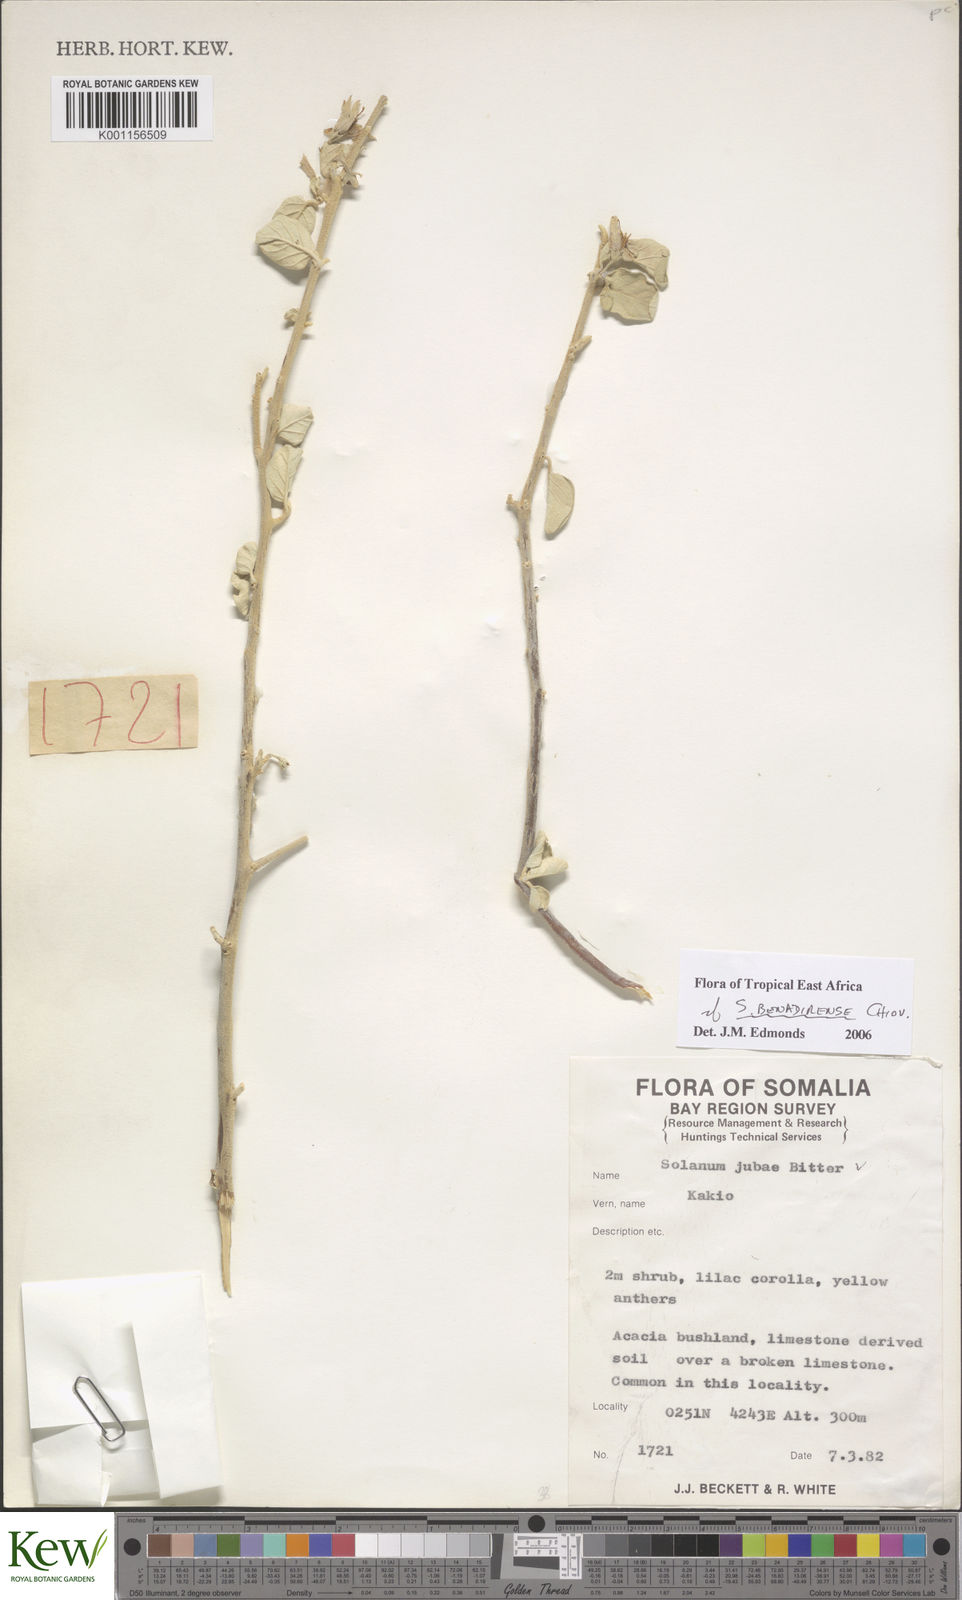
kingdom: Plantae
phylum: Tracheophyta
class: Magnoliopsida
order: Solanales
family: Solanaceae
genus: Solanum
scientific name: Solanum pampaninii
